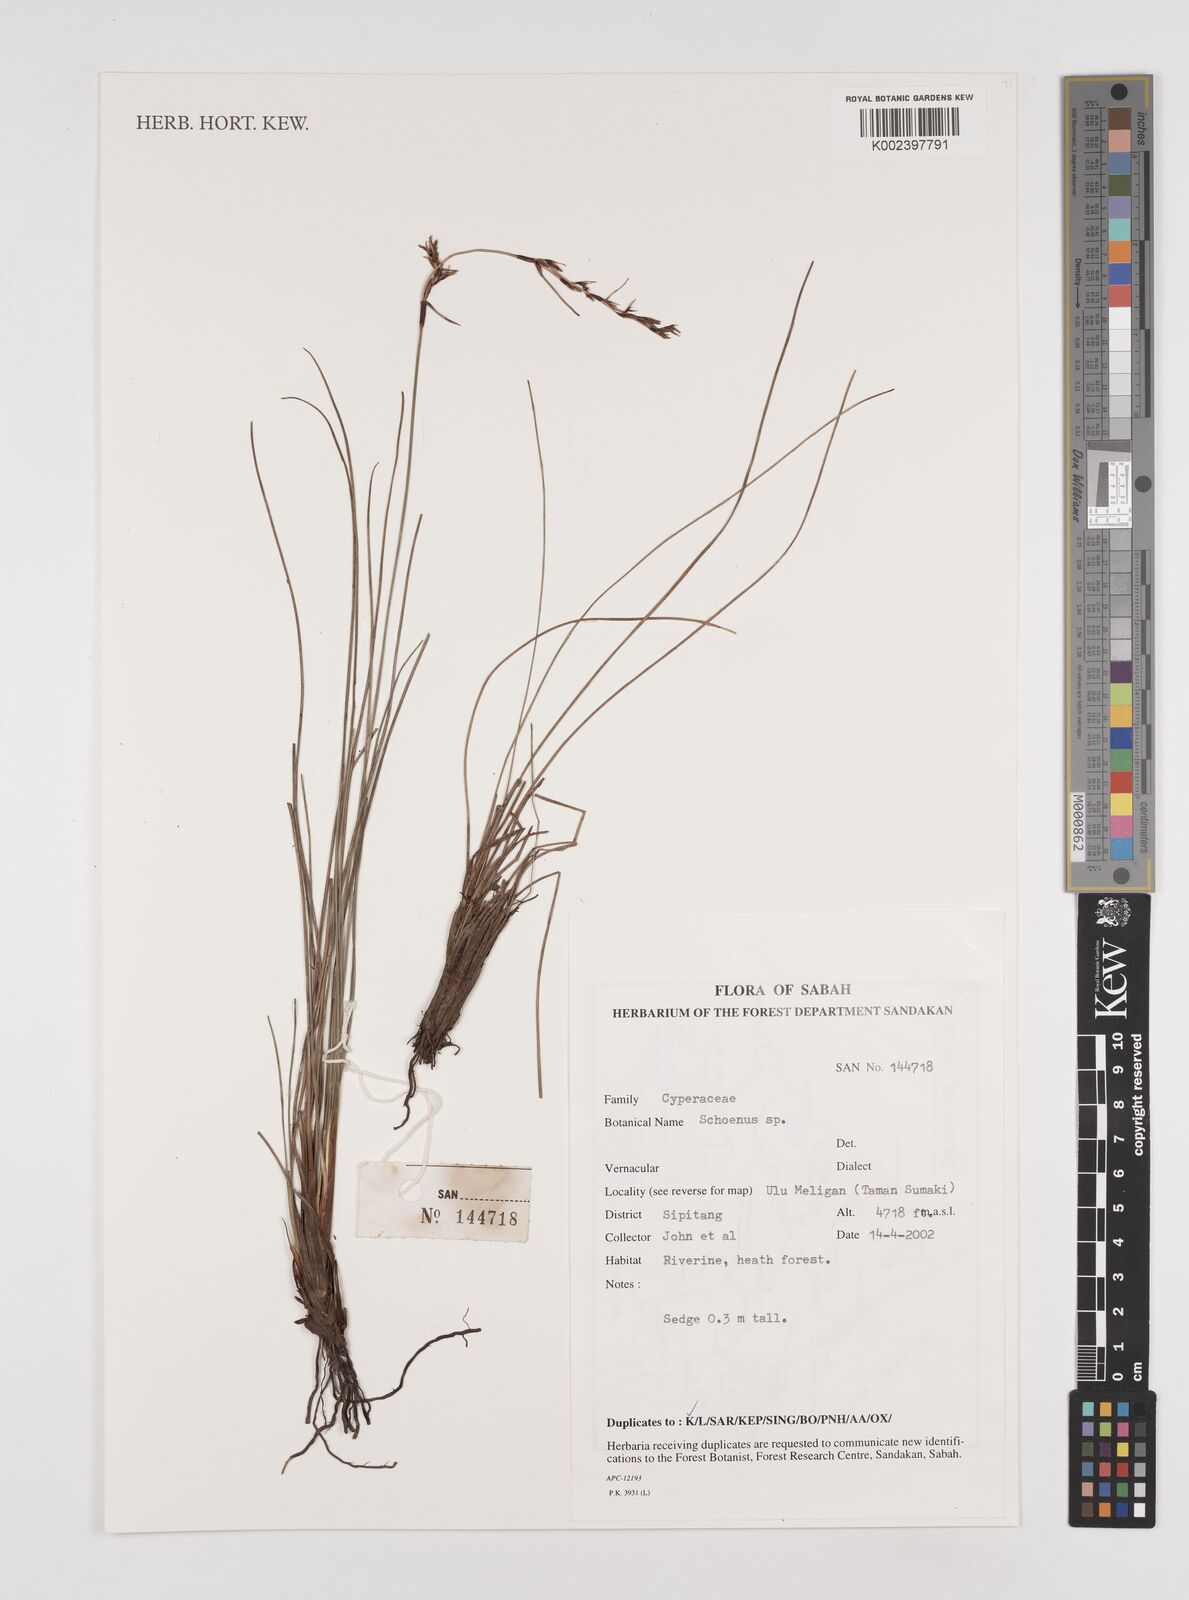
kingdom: Plantae
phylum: Tracheophyta
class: Liliopsida
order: Poales
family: Cyperaceae
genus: Schoenus
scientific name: Schoenus
